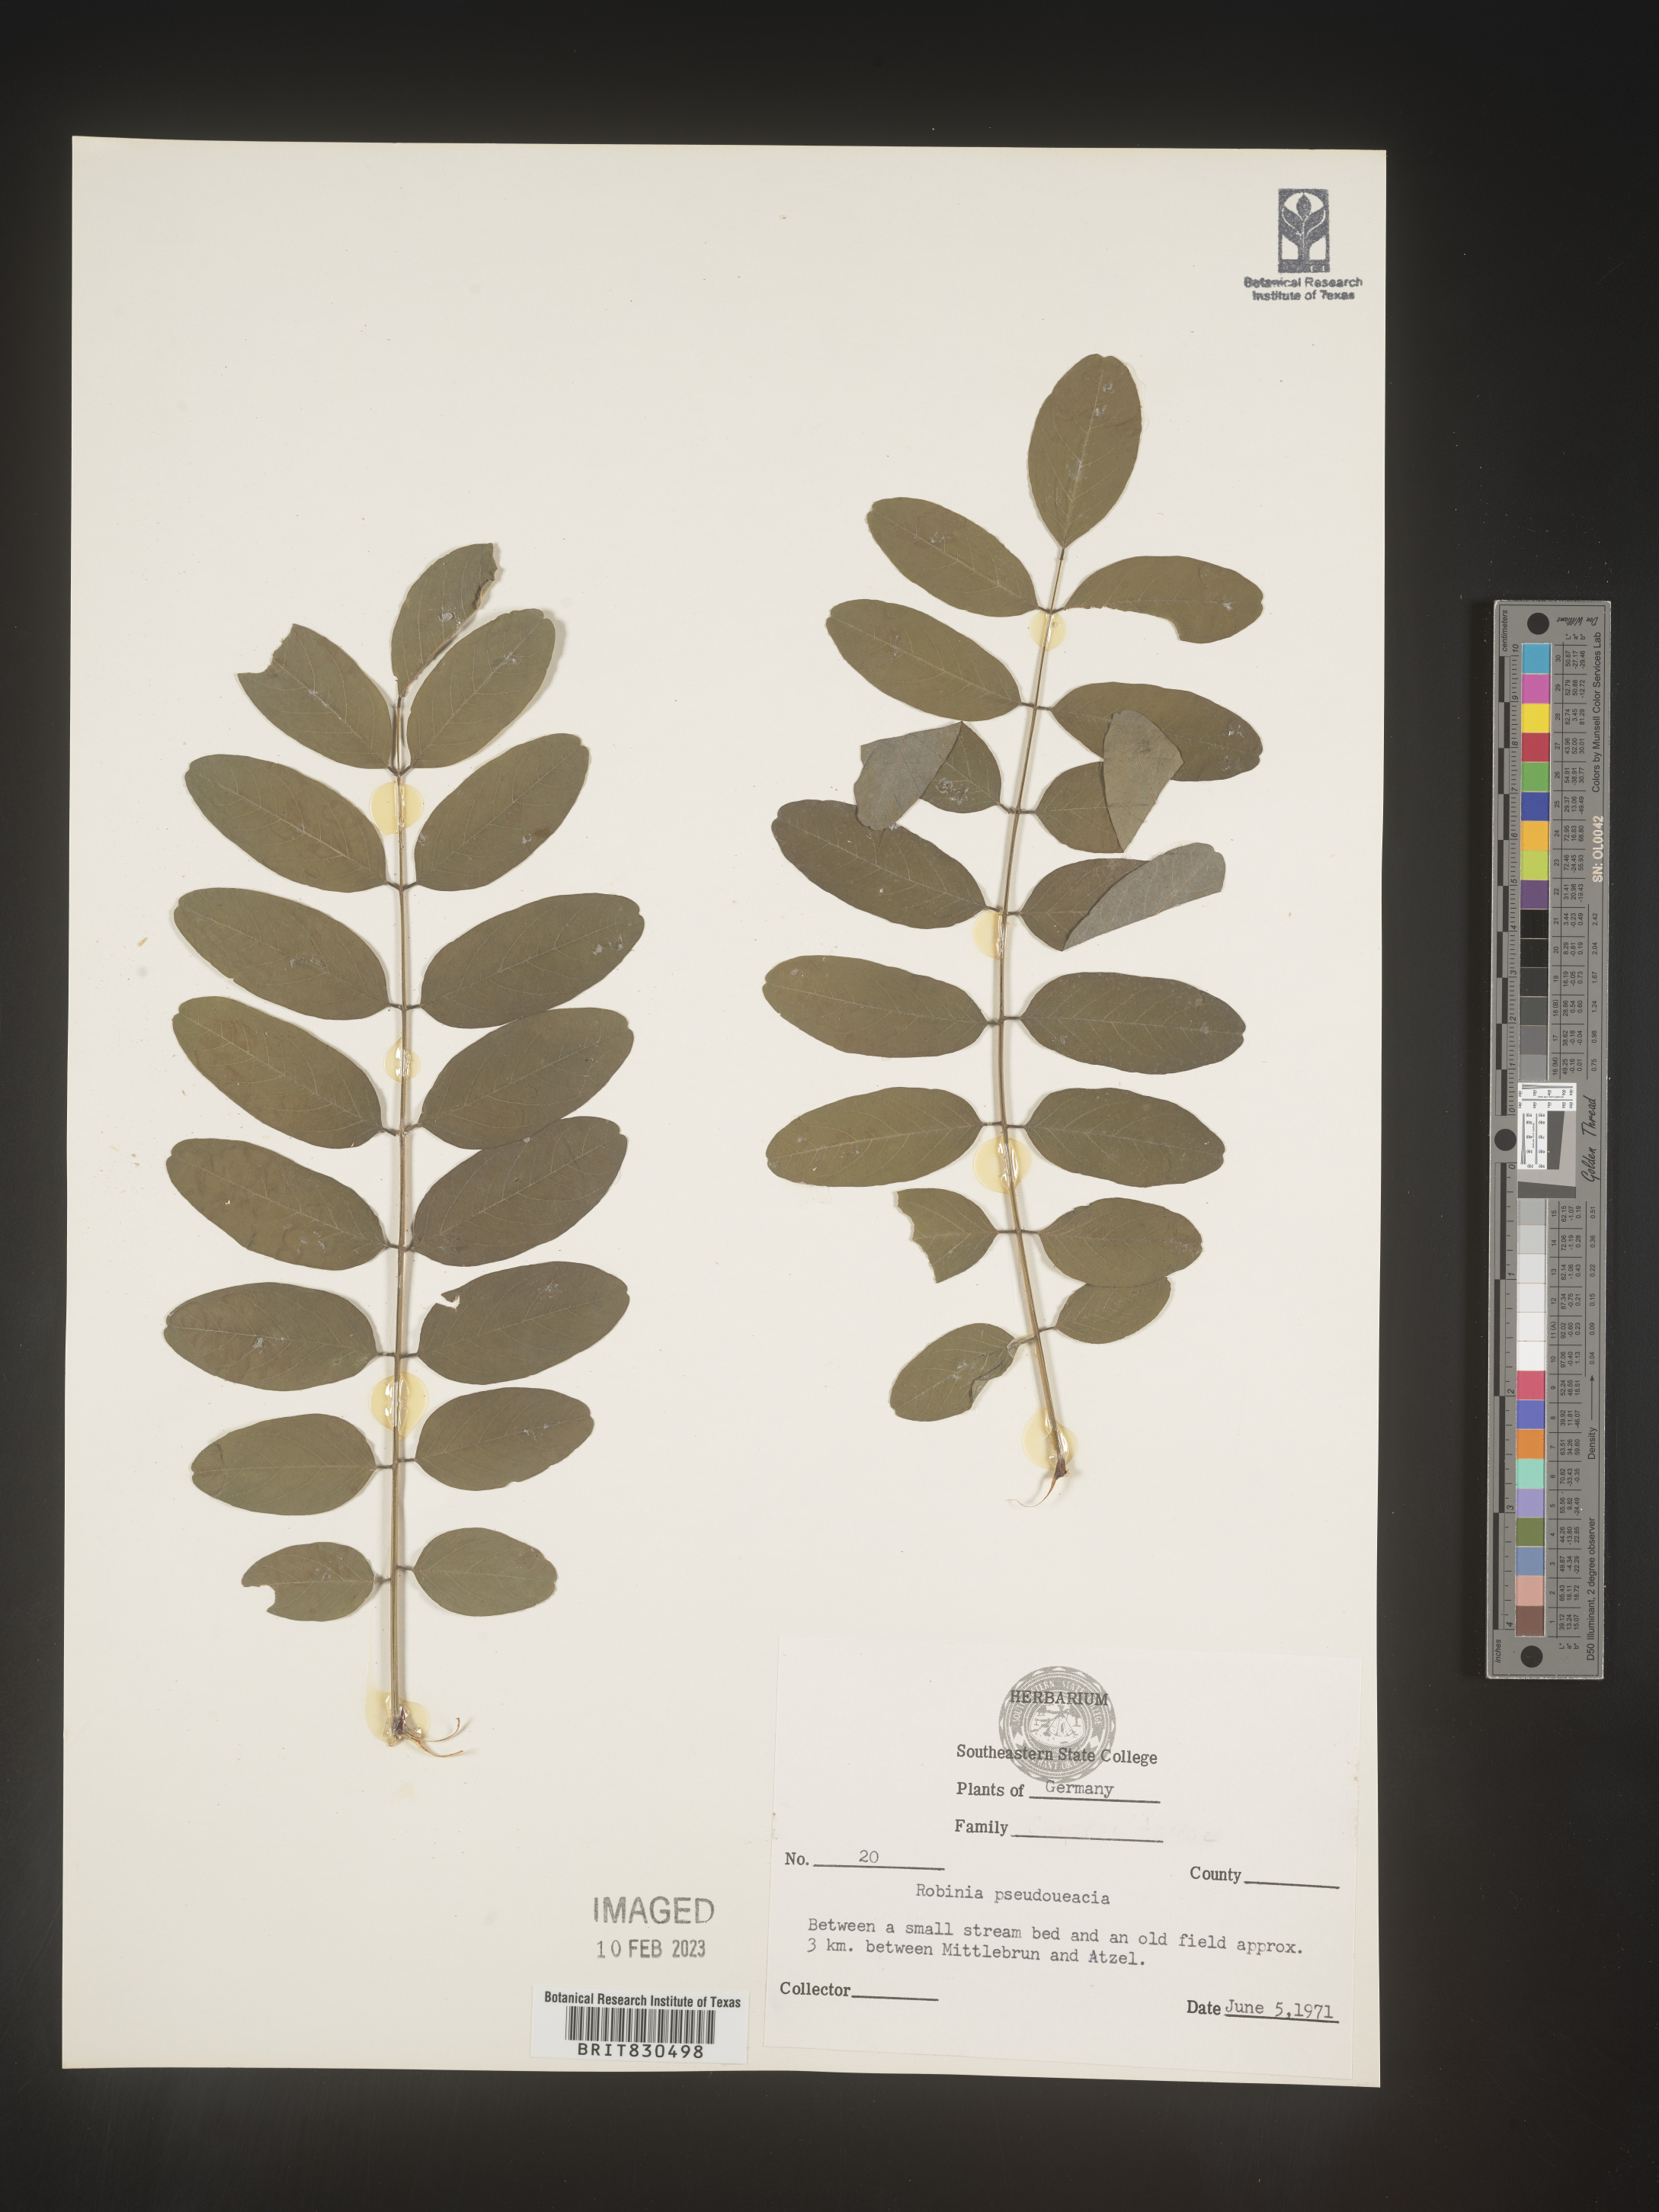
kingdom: Plantae
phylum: Tracheophyta
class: Magnoliopsida
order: Fabales
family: Fabaceae
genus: Robinia
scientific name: Robinia
